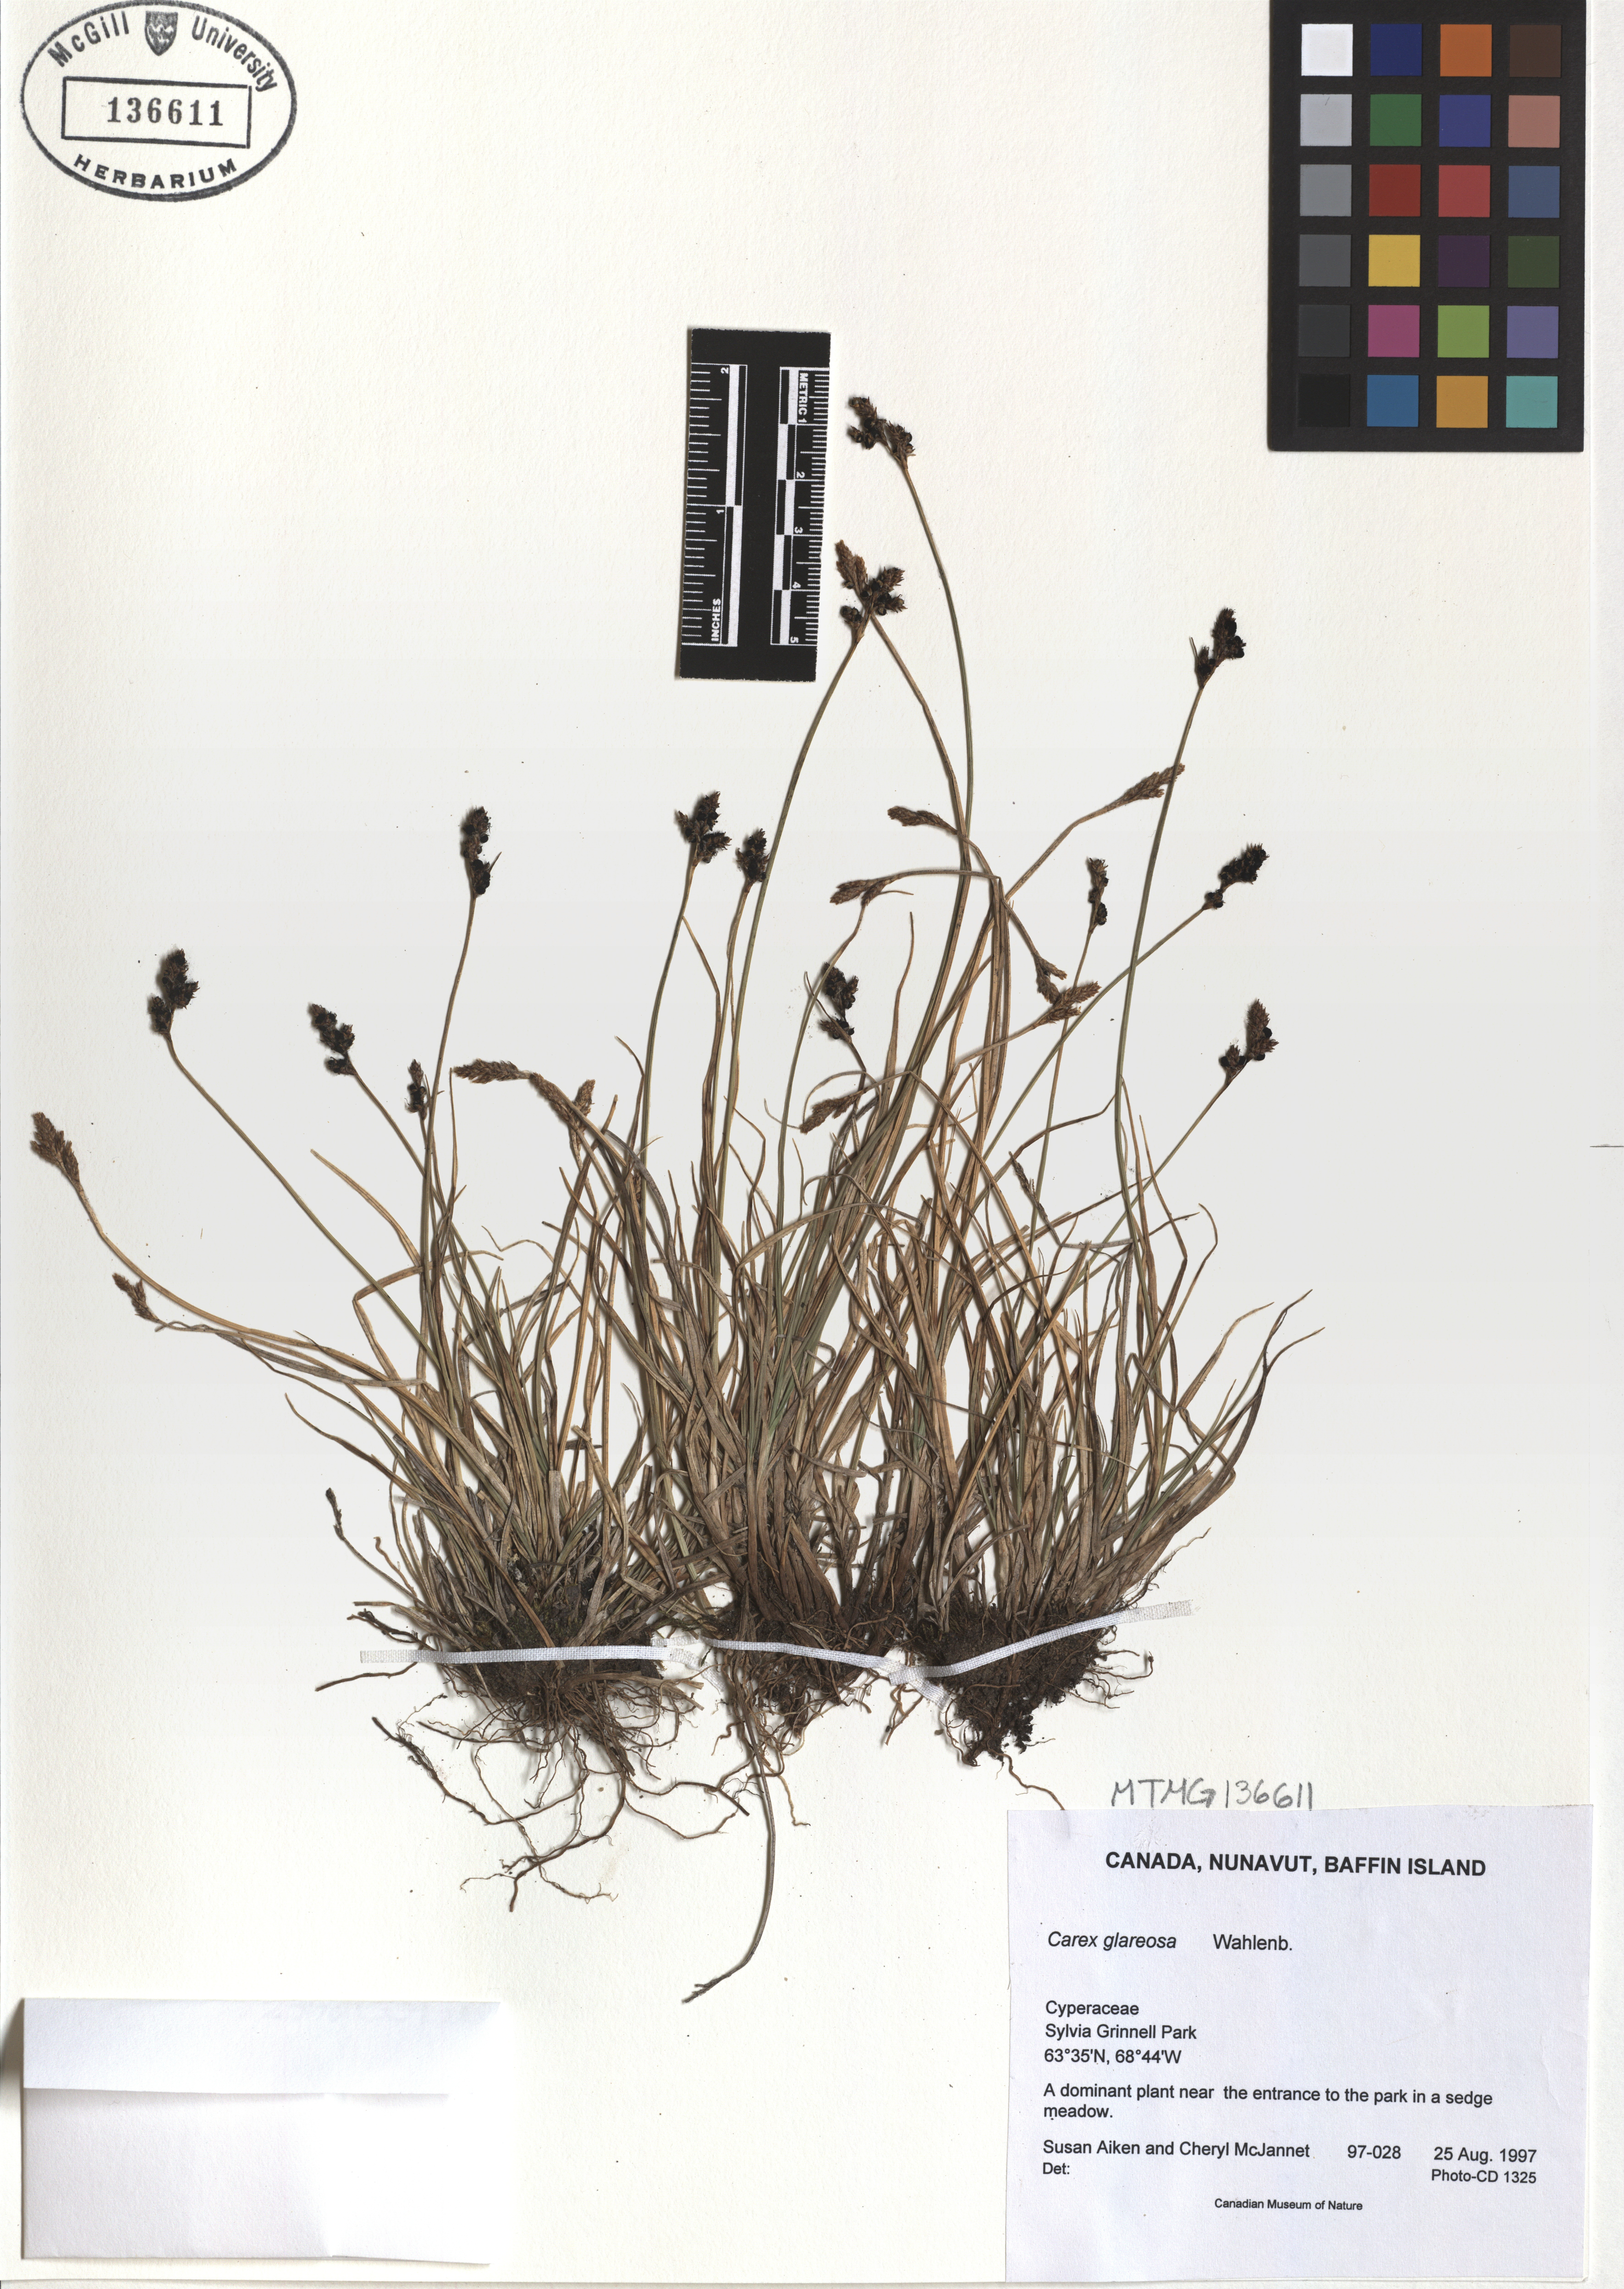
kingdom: Plantae
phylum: Tracheophyta
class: Liliopsida
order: Poales
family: Cyperaceae
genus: Carex
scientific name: Carex glareosa
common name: Clustered sedge
